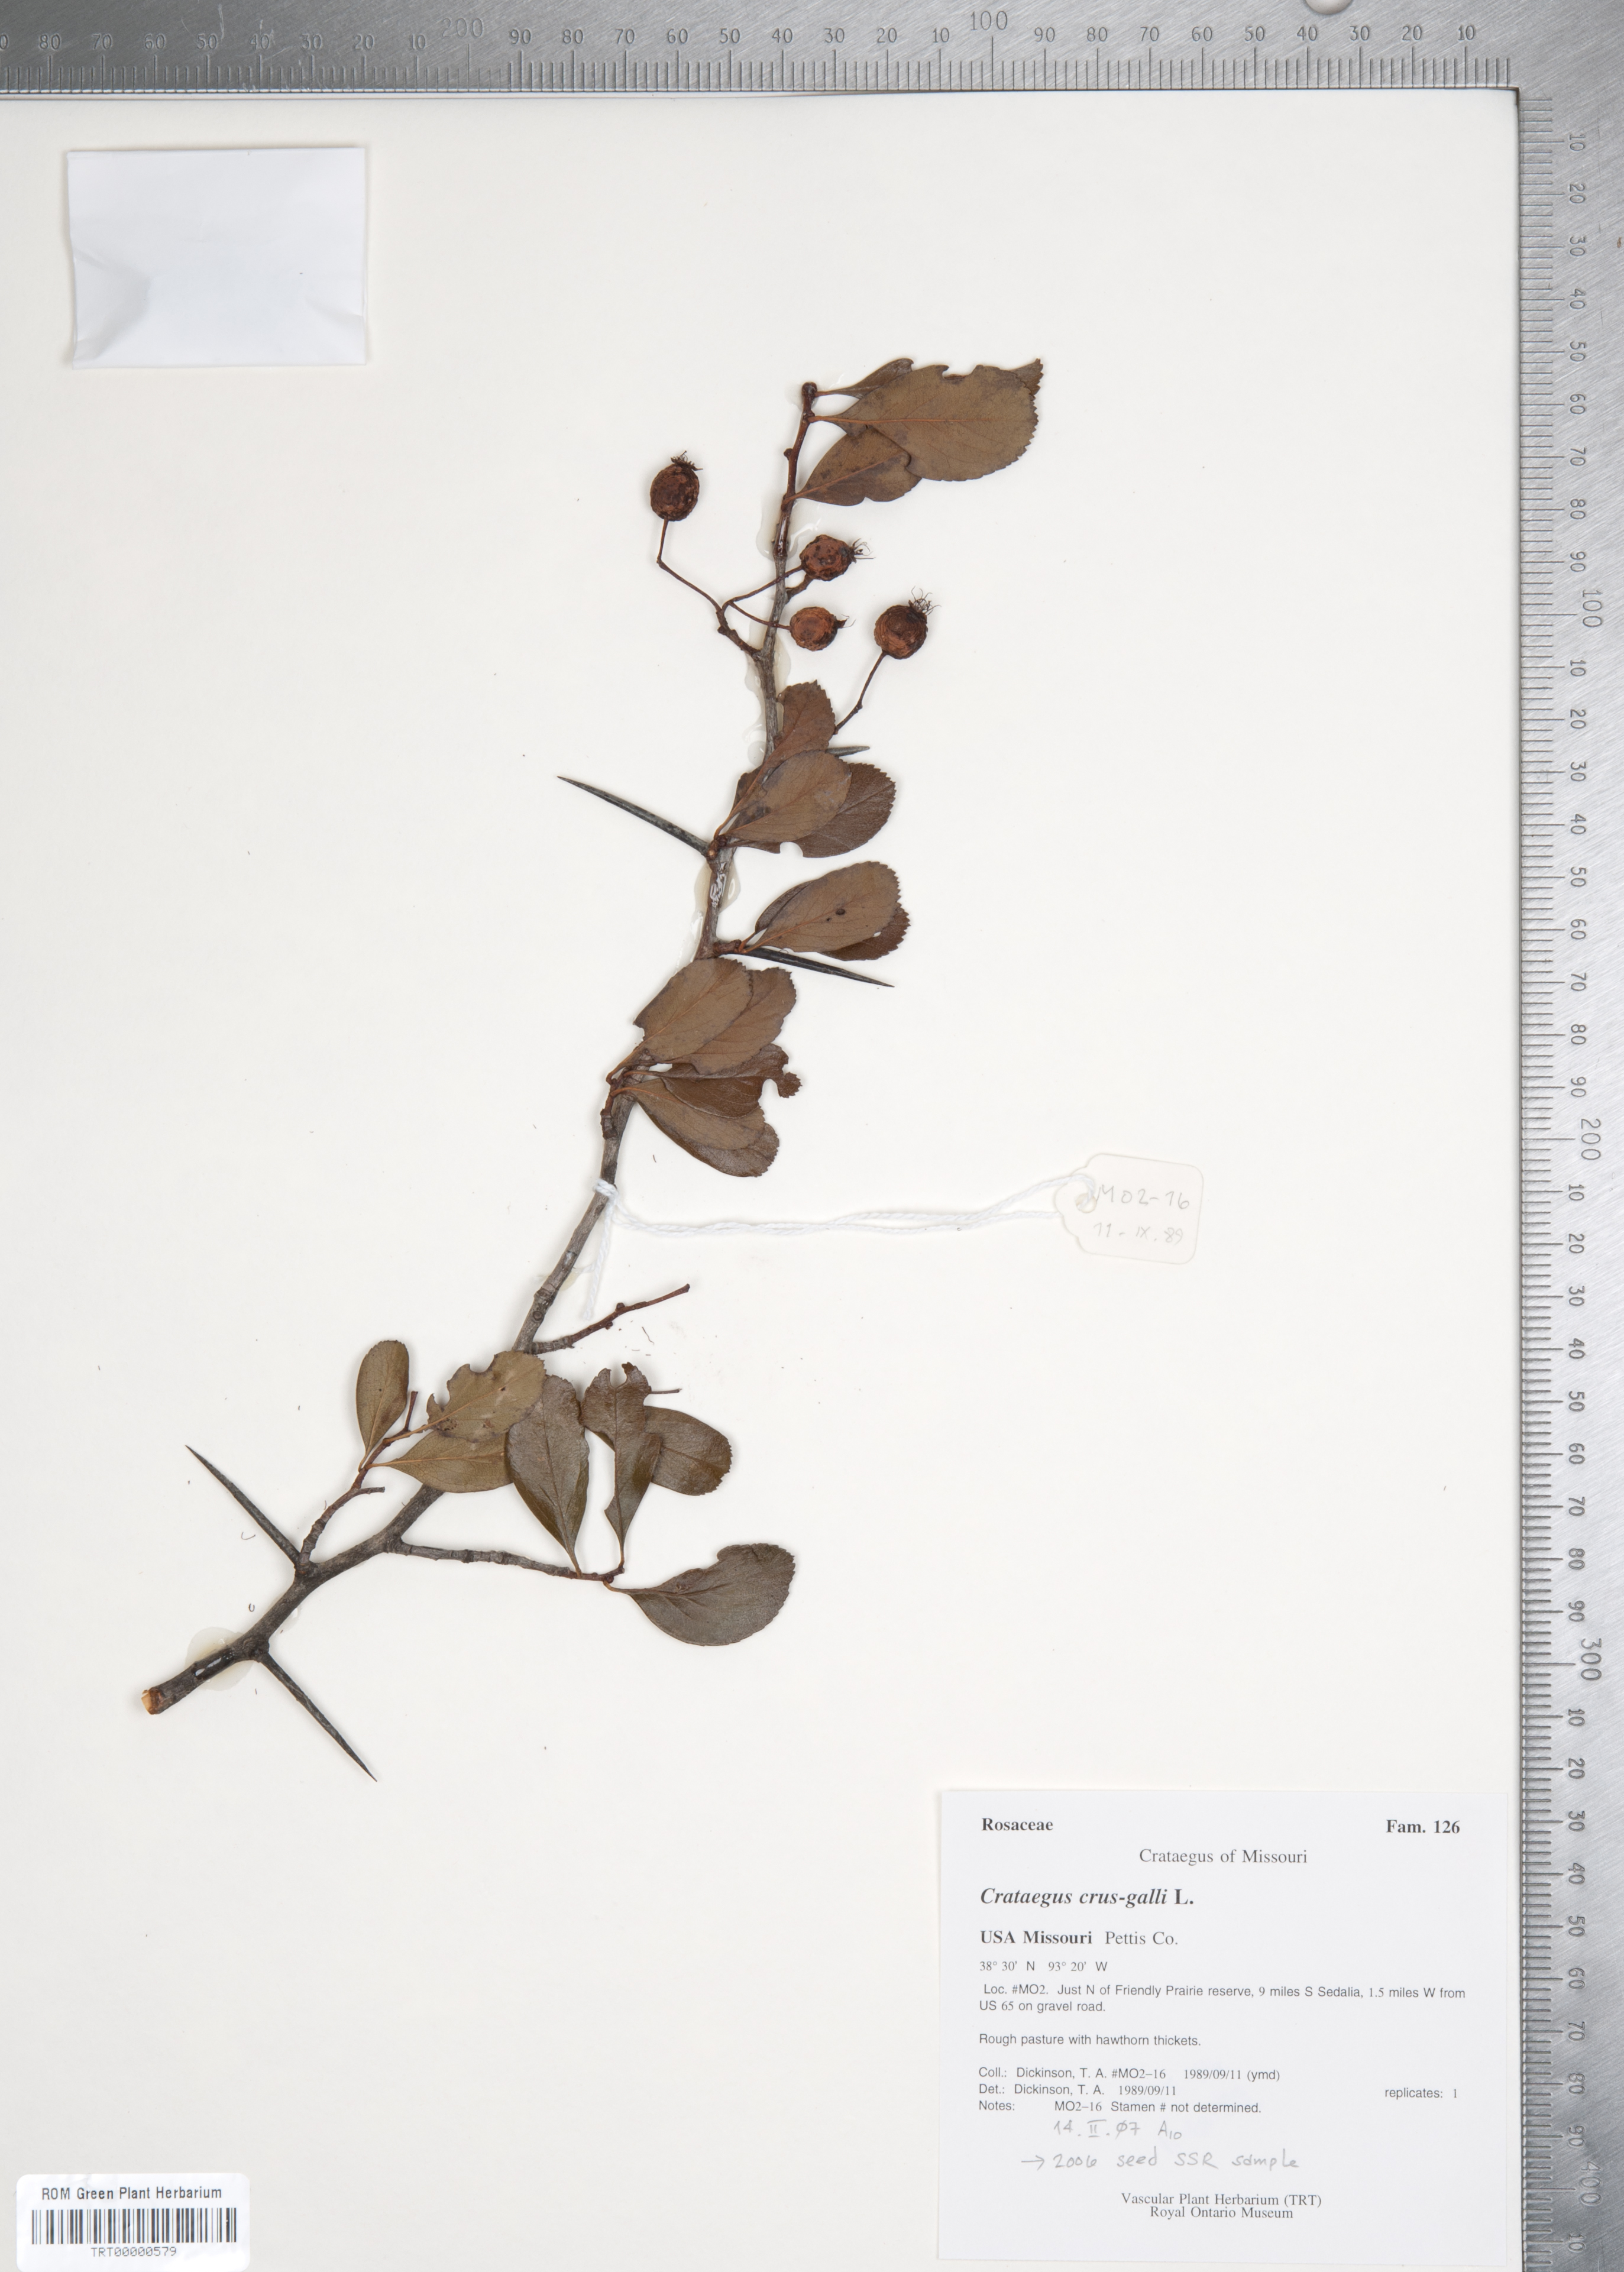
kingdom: Plantae
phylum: Tracheophyta
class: Magnoliopsida
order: Rosales
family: Rosaceae
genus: Crataegus
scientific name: Crataegus crus-galli
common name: Cockspurthorn
